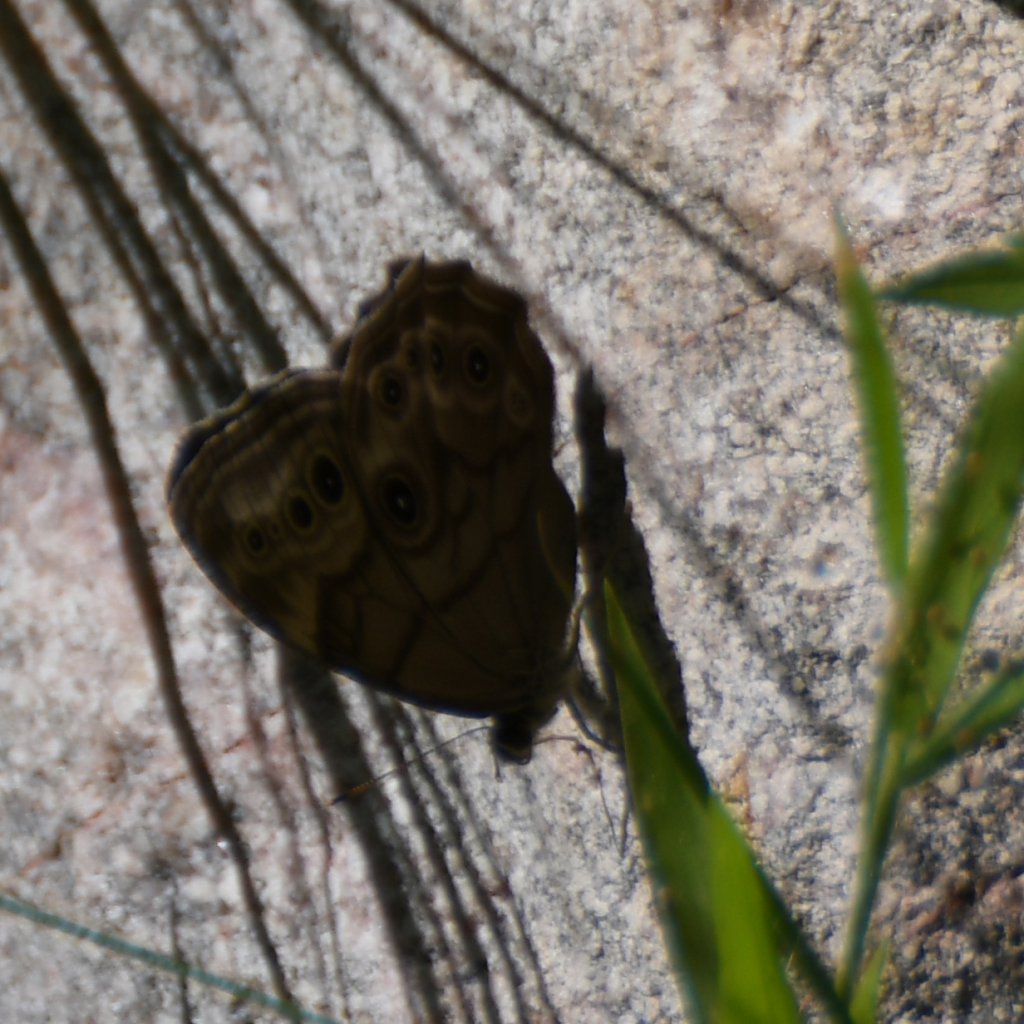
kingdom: Animalia
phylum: Arthropoda
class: Insecta
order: Lepidoptera
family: Nymphalidae
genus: Lethe
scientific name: Lethe anthedon
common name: Northern Pearly-Eye
